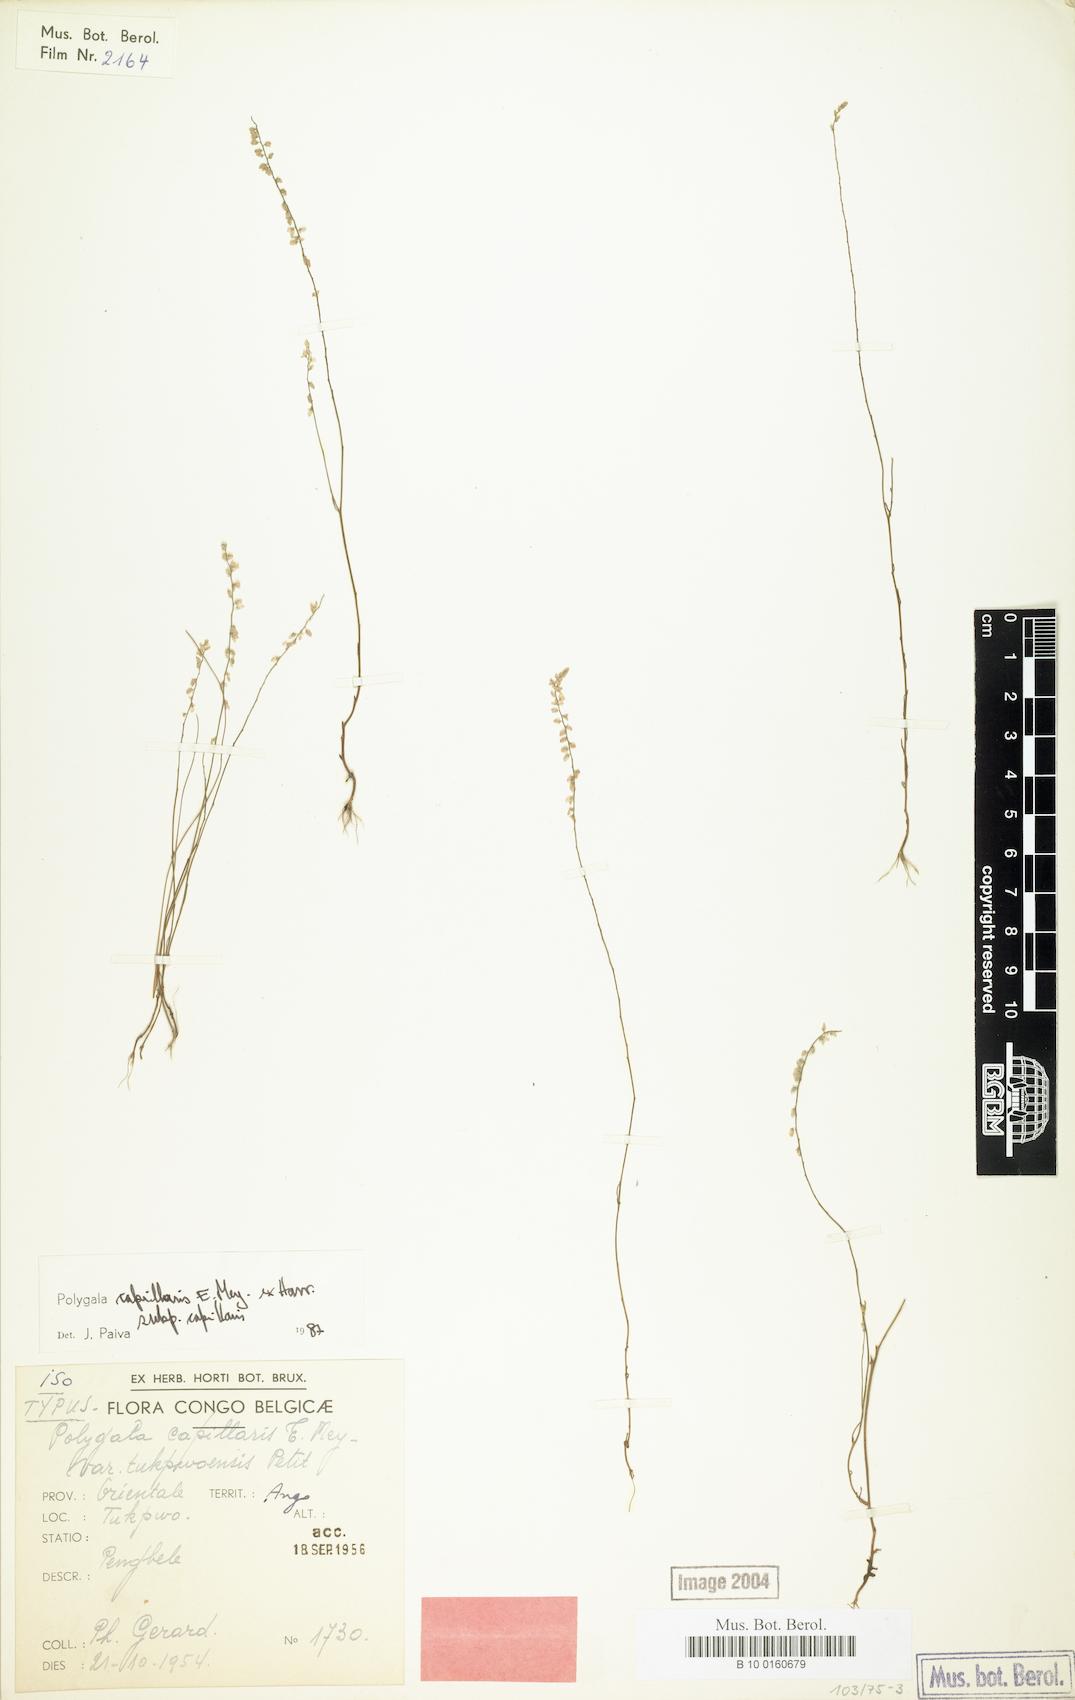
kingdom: Plantae
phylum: Tracheophyta
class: Magnoliopsida
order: Fabales
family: Polygalaceae
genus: Polygala
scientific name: Polygala capillaris
